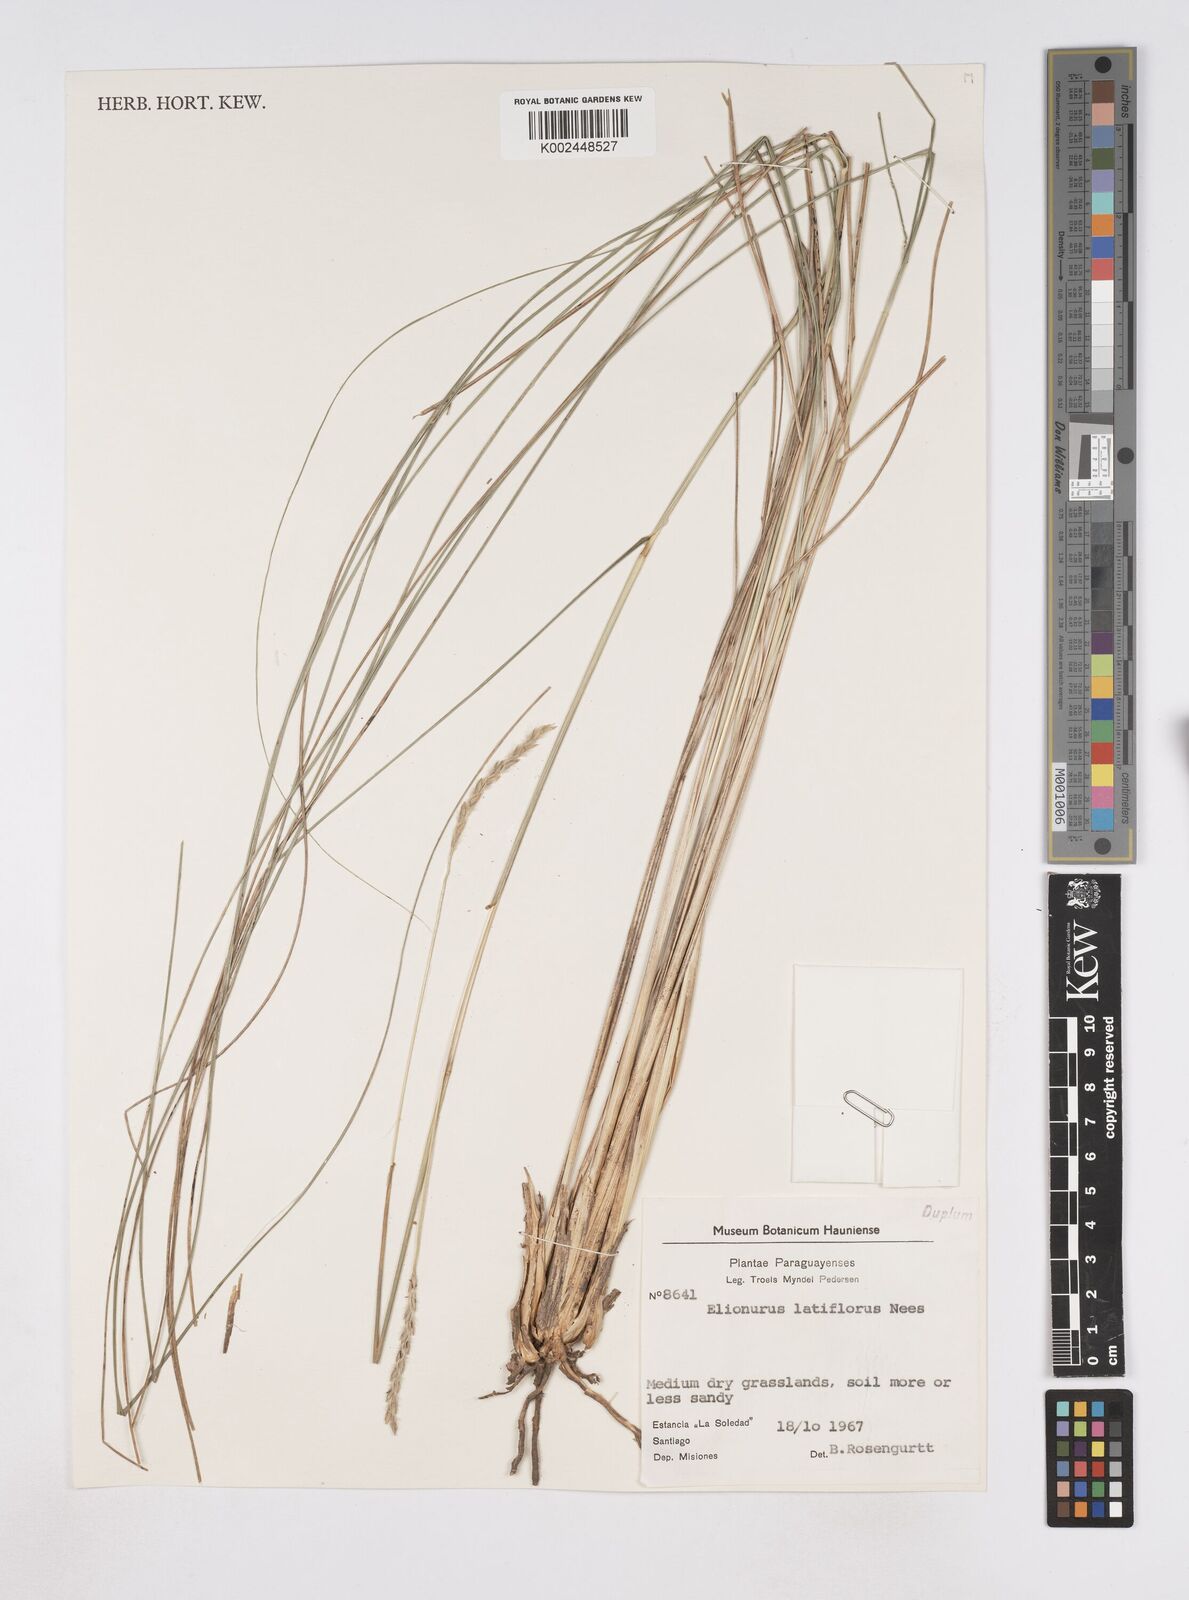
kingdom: Plantae
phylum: Tracheophyta
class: Liliopsida
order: Poales
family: Poaceae
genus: Elionurus
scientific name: Elionurus muticus
